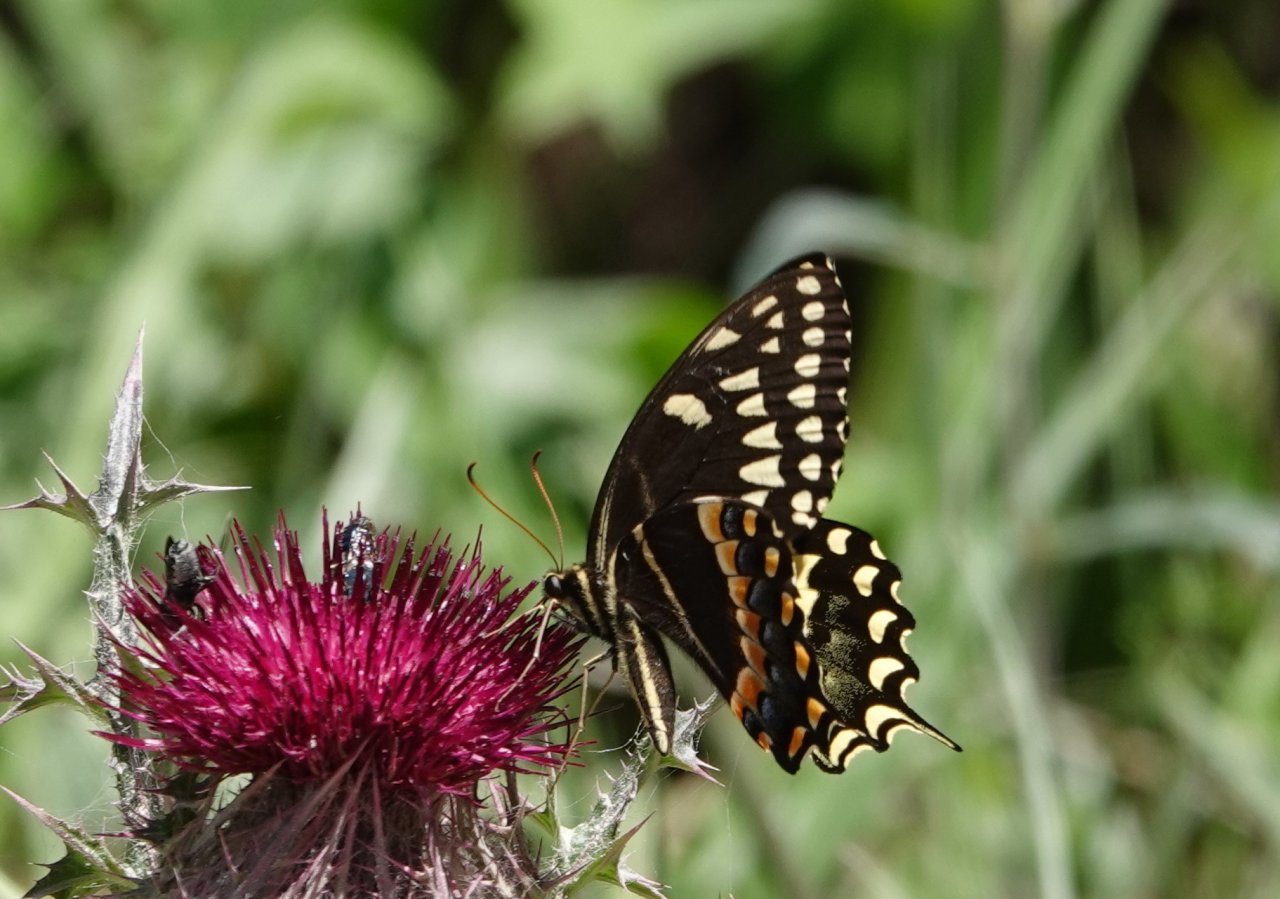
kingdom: Animalia
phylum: Arthropoda
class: Insecta
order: Lepidoptera
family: Papilionidae
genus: Pterourus
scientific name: Pterourus palamedes
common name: Palamedes Swallowtail
